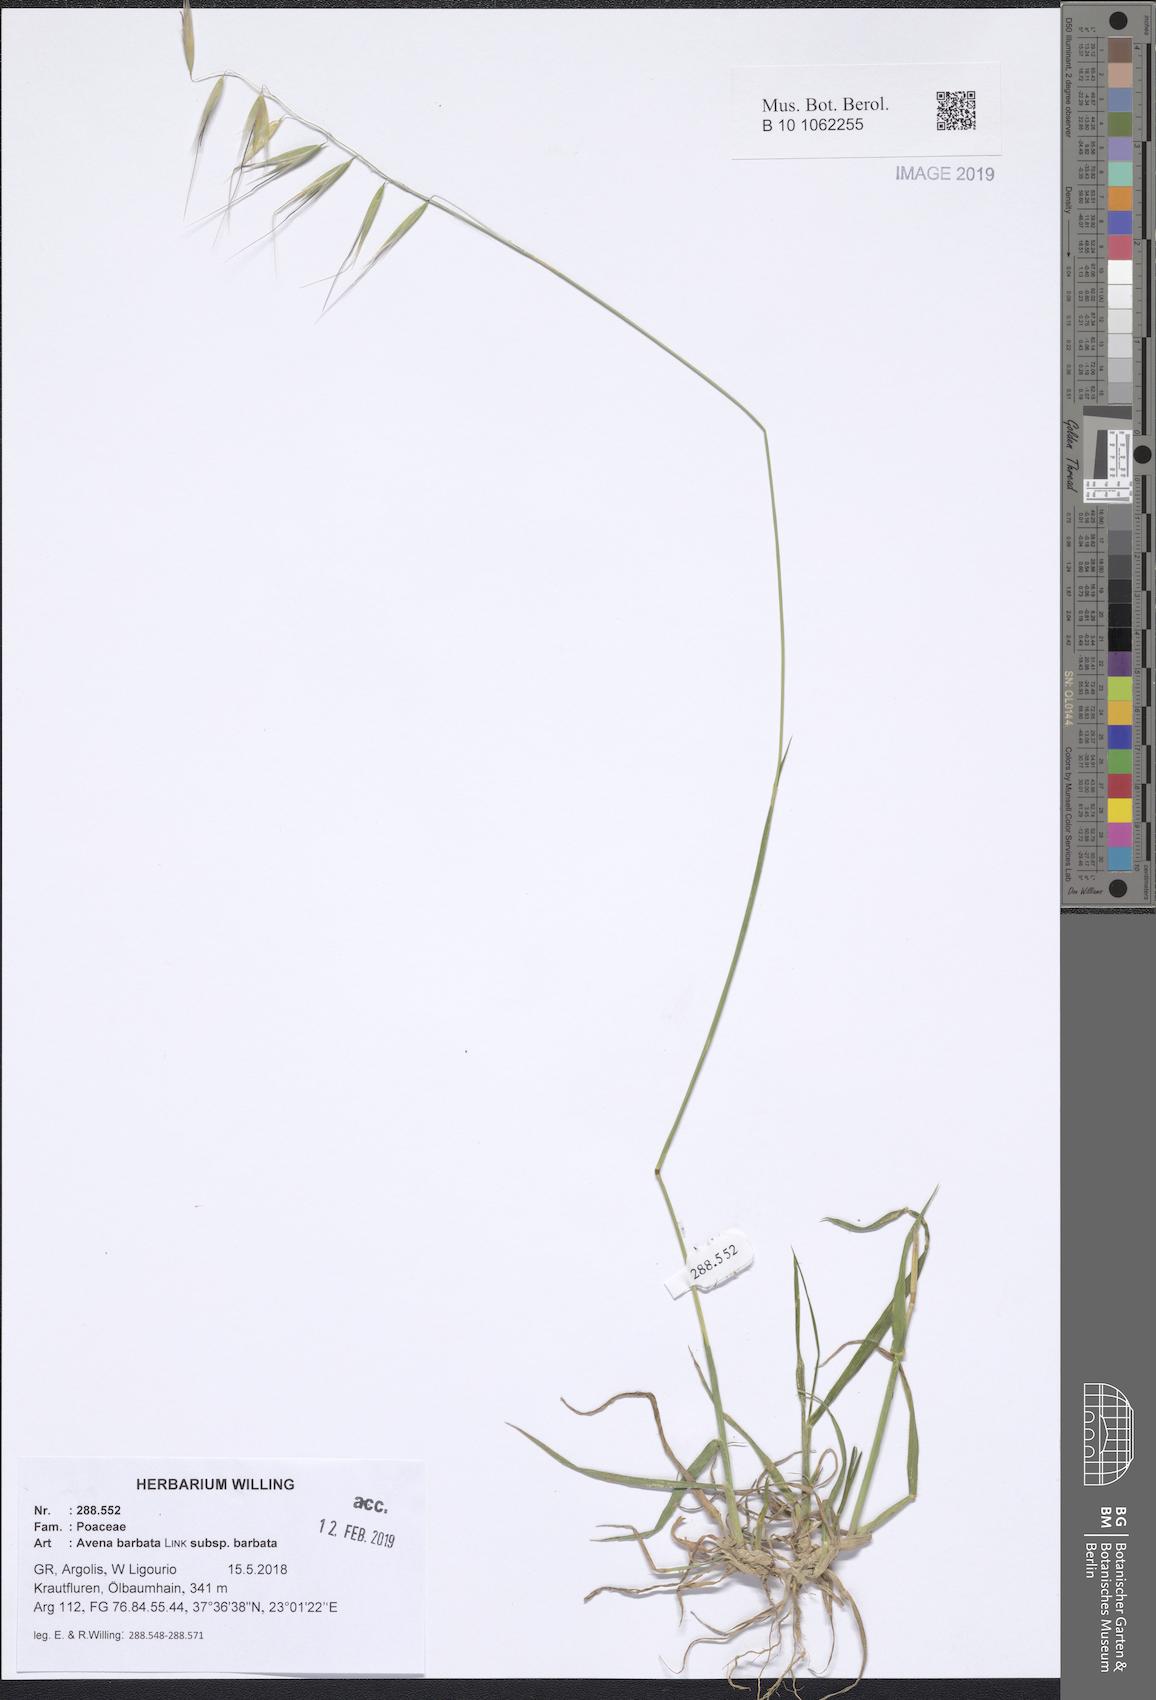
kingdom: Plantae
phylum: Tracheophyta
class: Liliopsida
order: Poales
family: Poaceae
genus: Avena
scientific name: Avena barbata
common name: Slender oat
